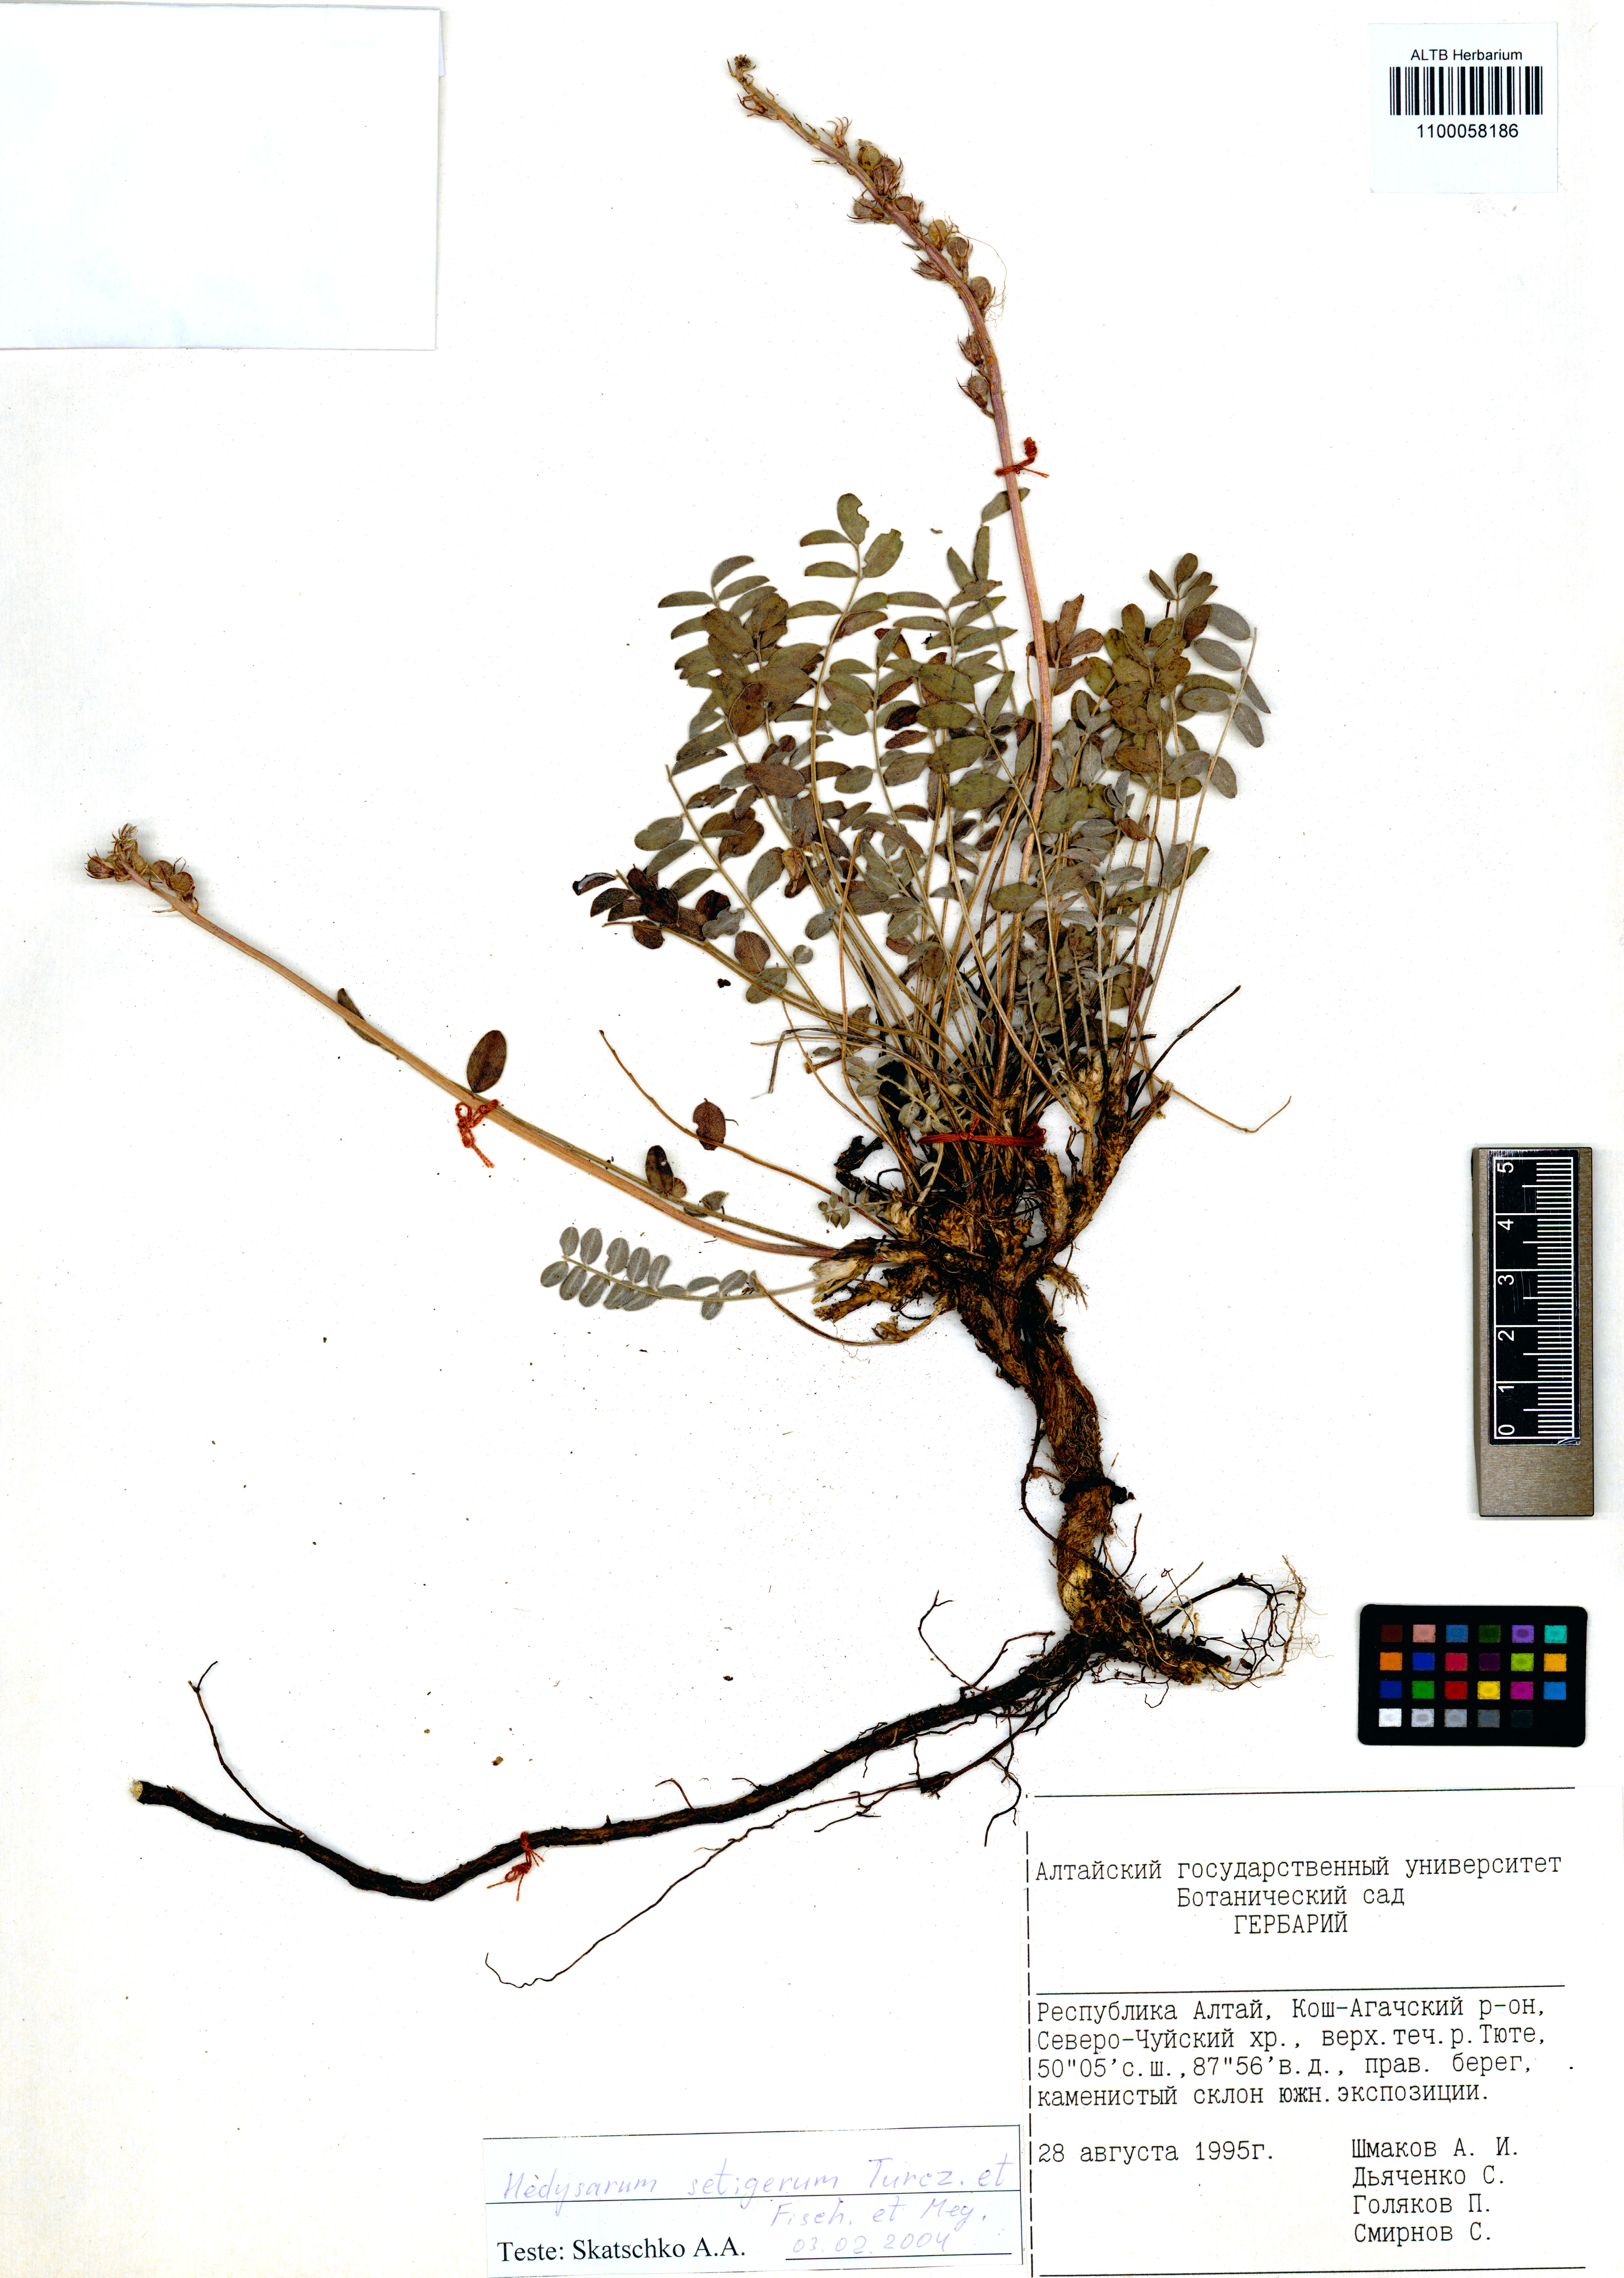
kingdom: Plantae
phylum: Tracheophyta
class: Magnoliopsida
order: Fabales
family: Fabaceae
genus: Hedysarum
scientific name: Hedysarum setigerum
